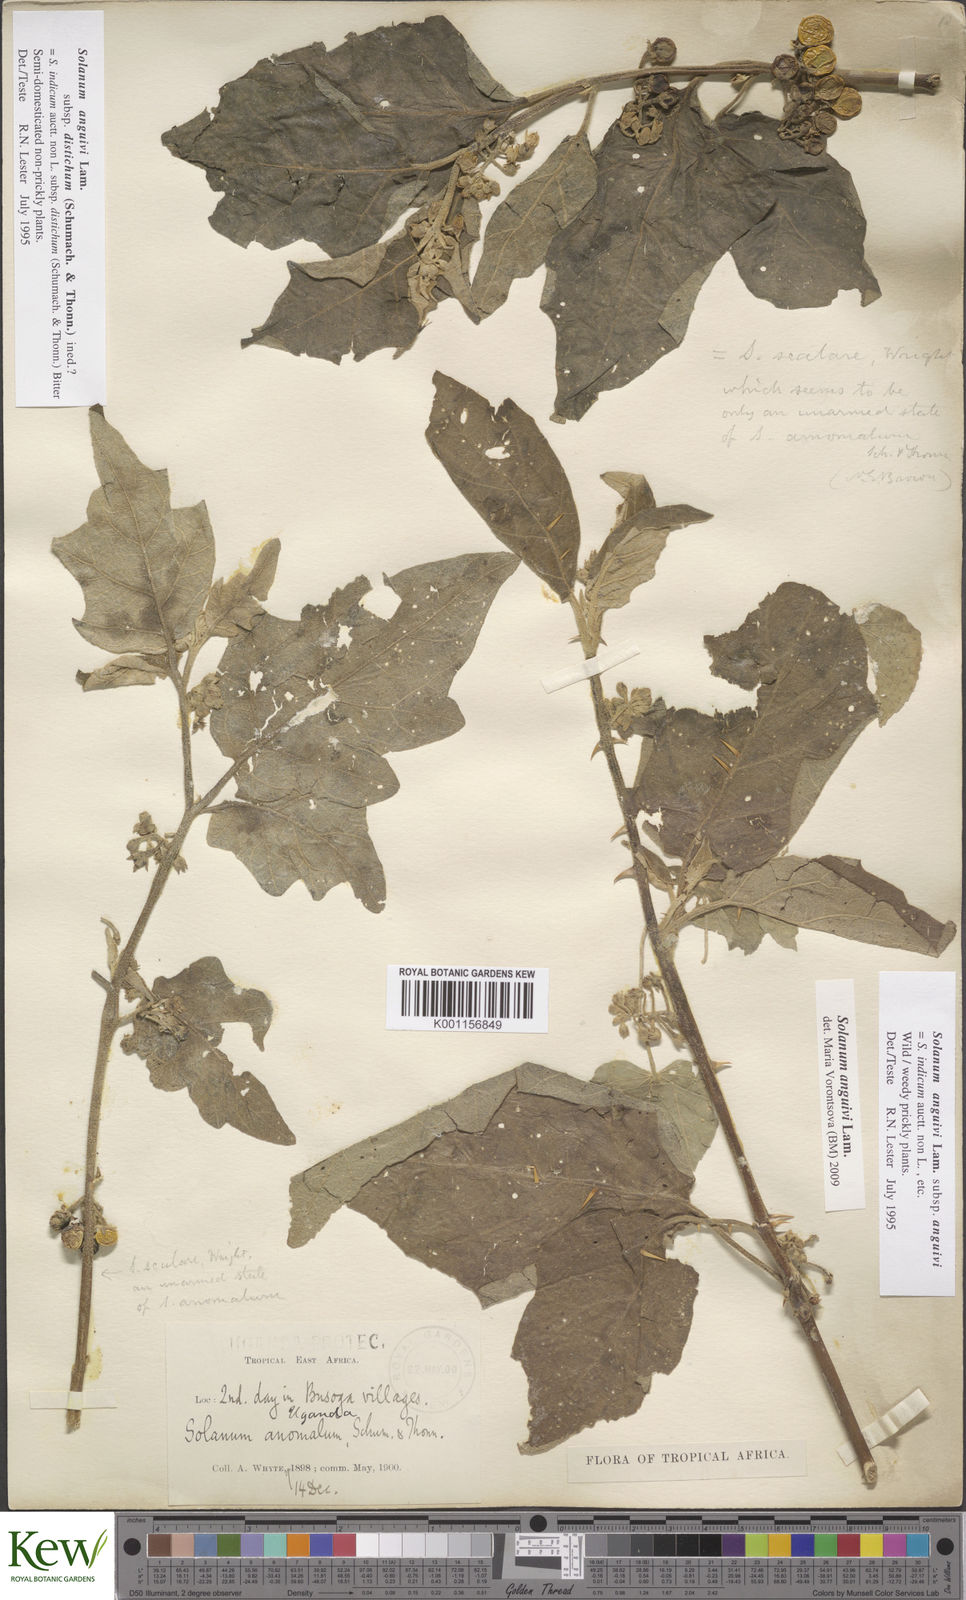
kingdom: Plantae
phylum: Tracheophyta
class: Magnoliopsida
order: Solanales
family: Solanaceae
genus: Solanum
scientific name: Solanum anguivi
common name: Forest bitterberry
